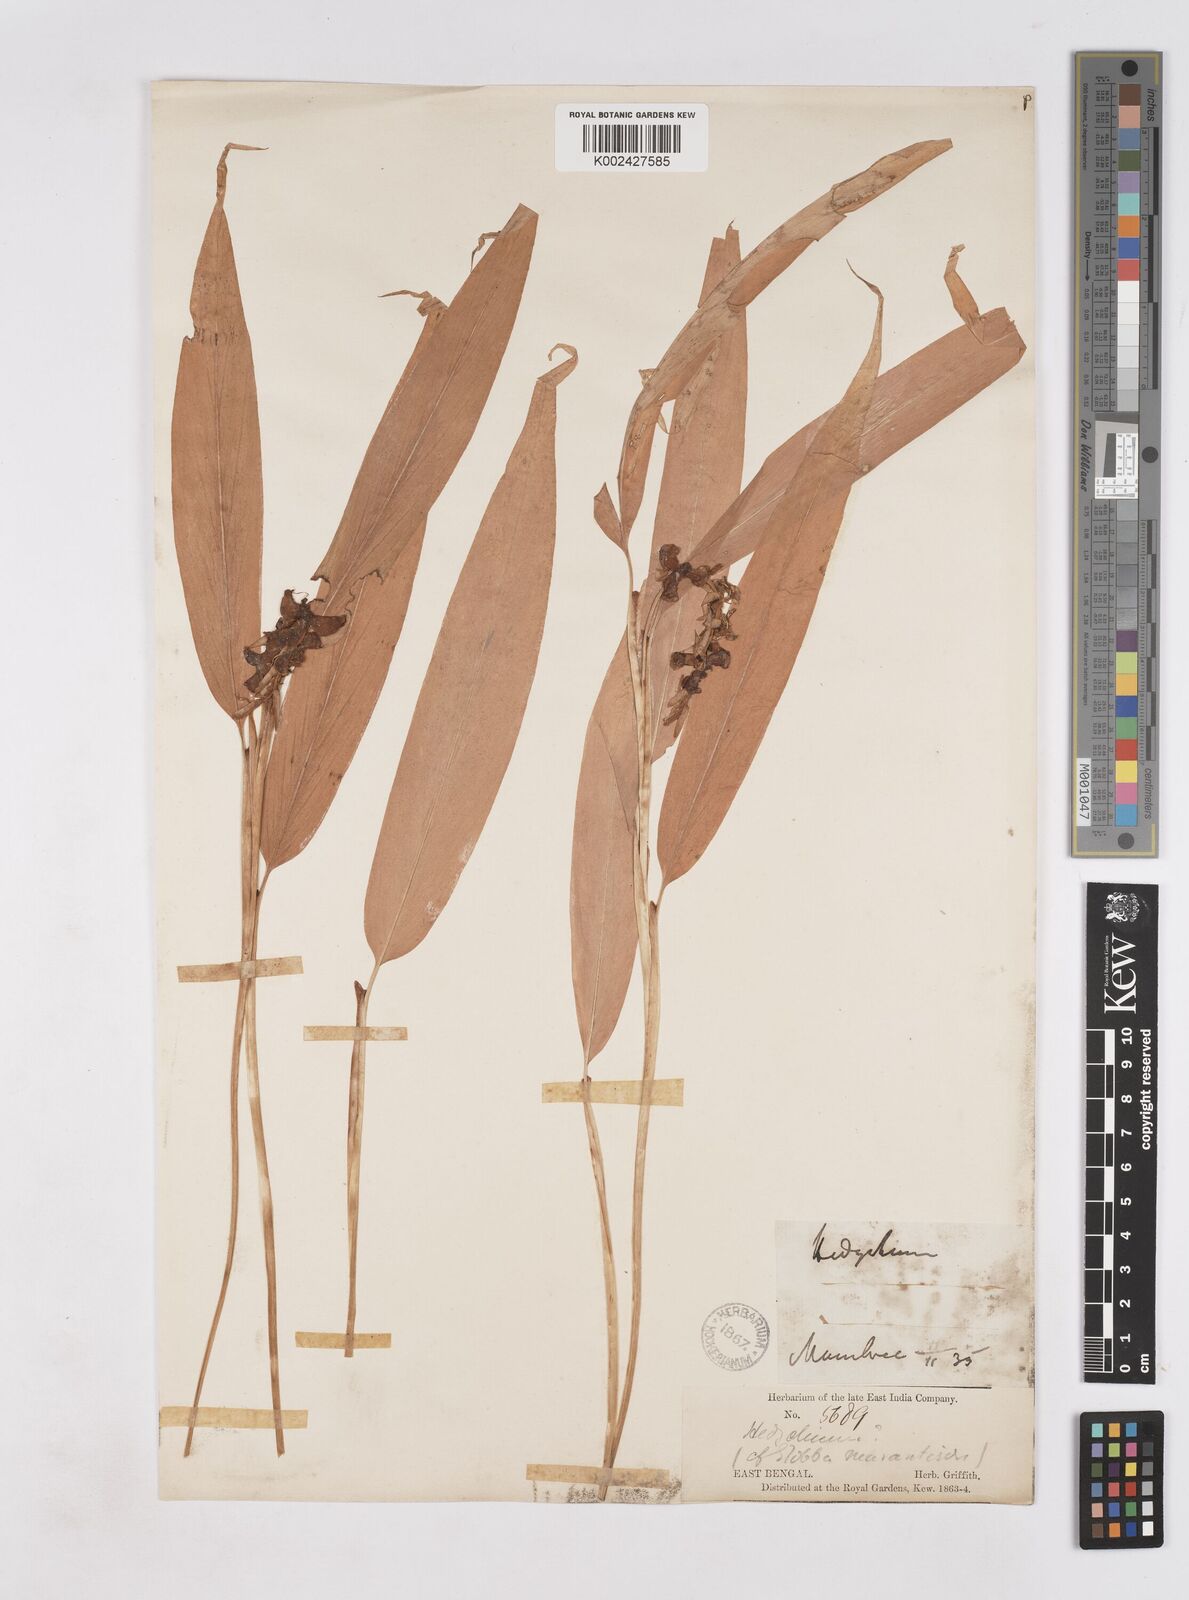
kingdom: Plantae
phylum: Tracheophyta
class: Liliopsida
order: Zingiberales
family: Zingiberaceae
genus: Cautleya
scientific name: Cautleya gracilis
